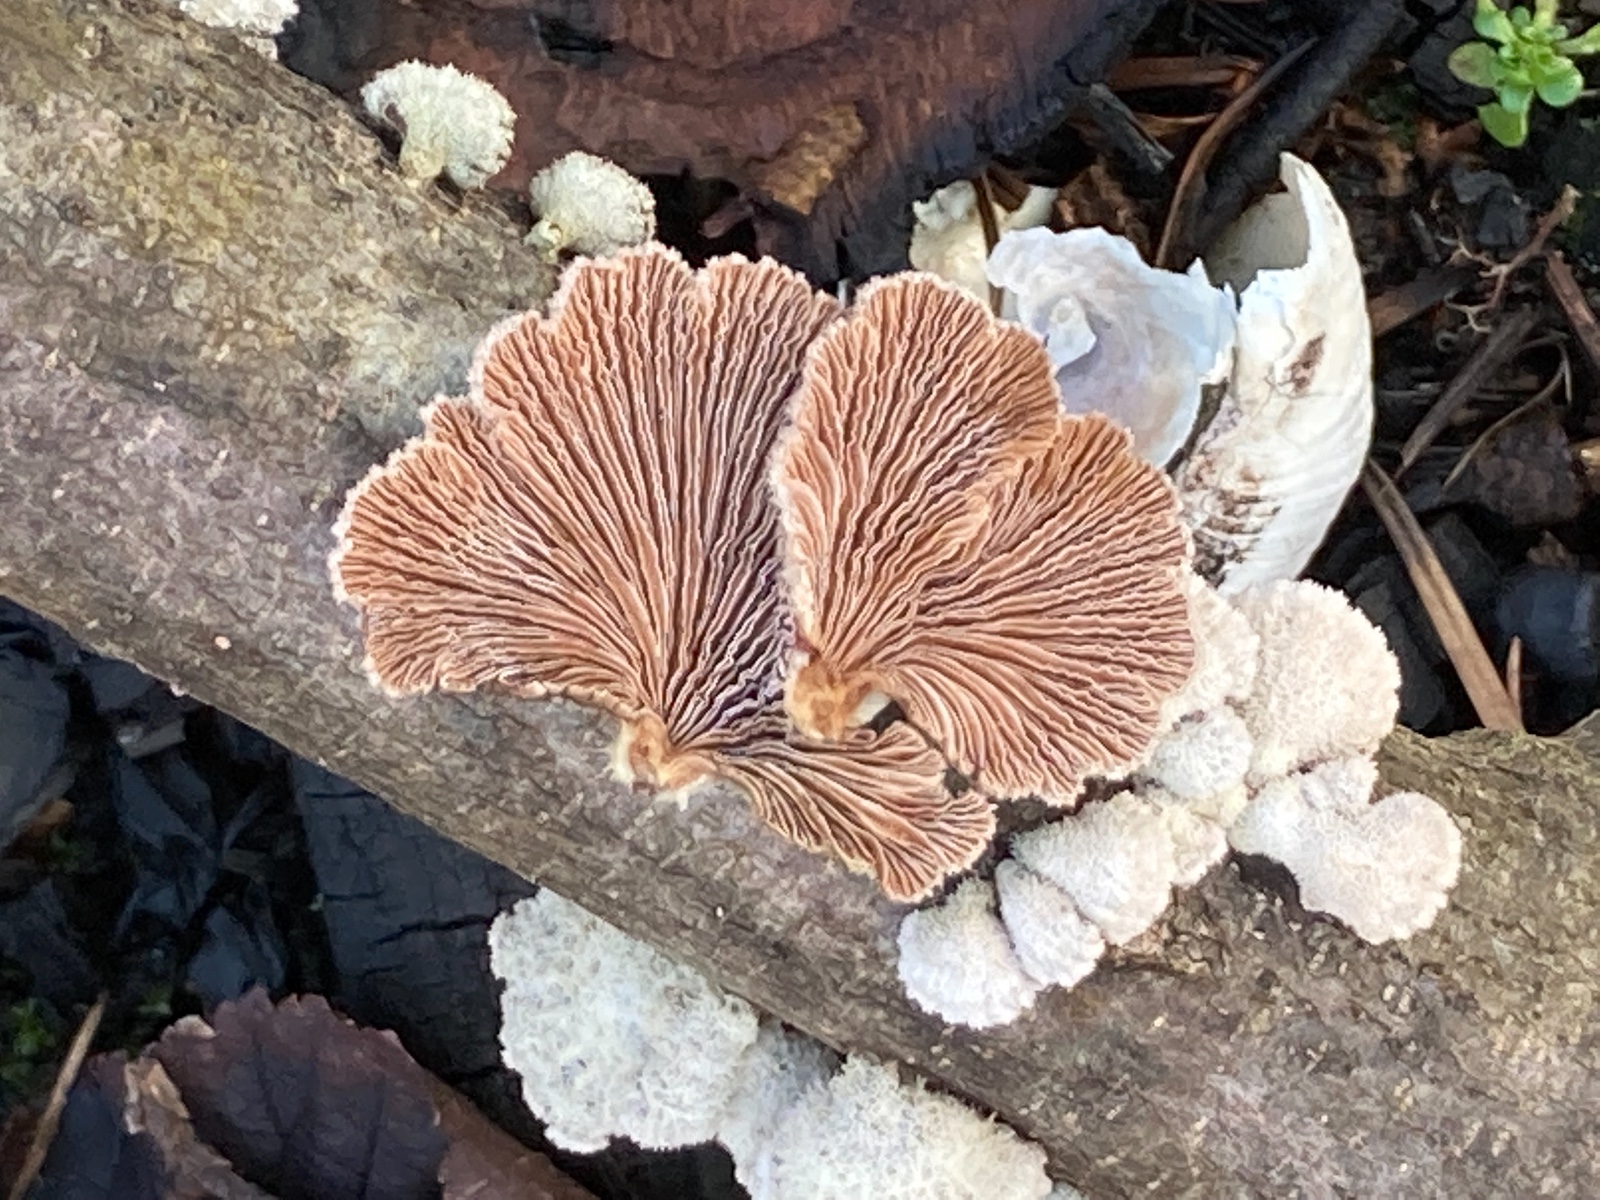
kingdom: Fungi
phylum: Basidiomycota
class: Agaricomycetes
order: Agaricales
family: Schizophyllaceae
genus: Schizophyllum
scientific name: Schizophyllum commune
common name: kløvblad
